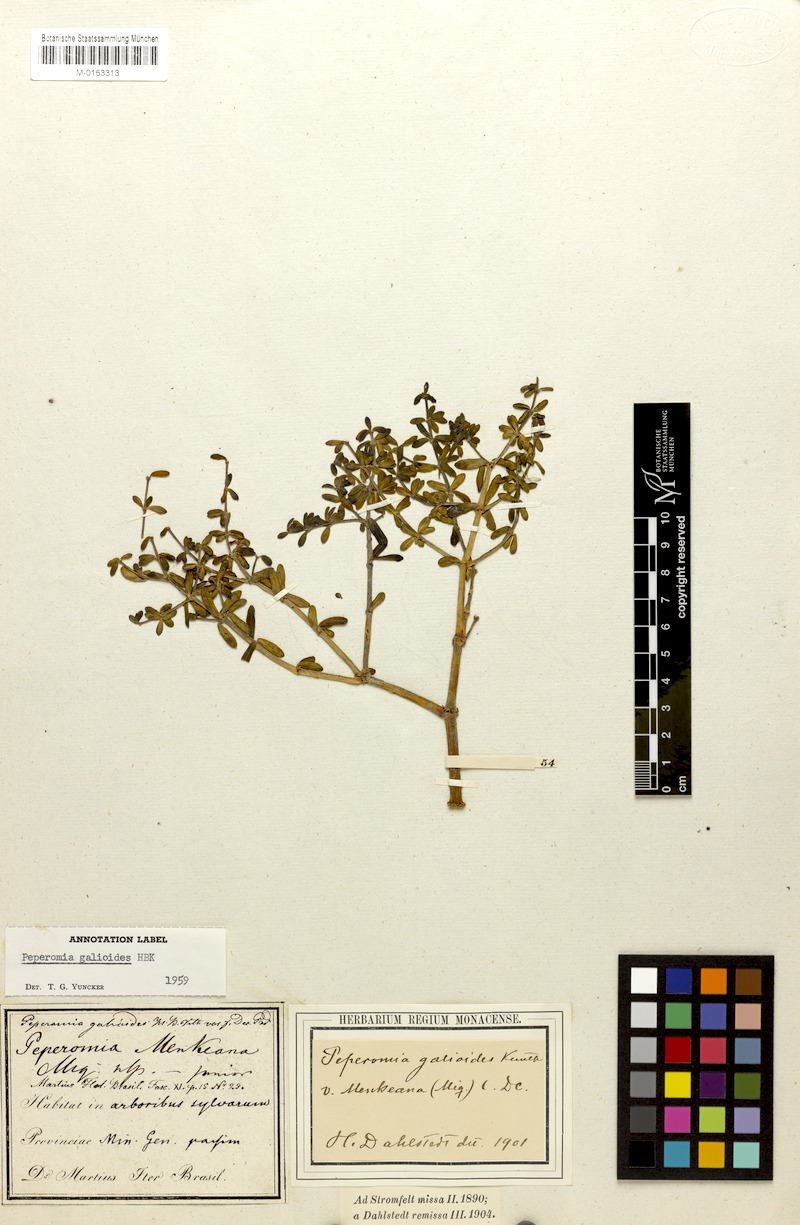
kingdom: Plantae
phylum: Tracheophyta
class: Magnoliopsida
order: Piperales
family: Piperaceae
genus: Peperomia
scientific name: Peperomia galioides
